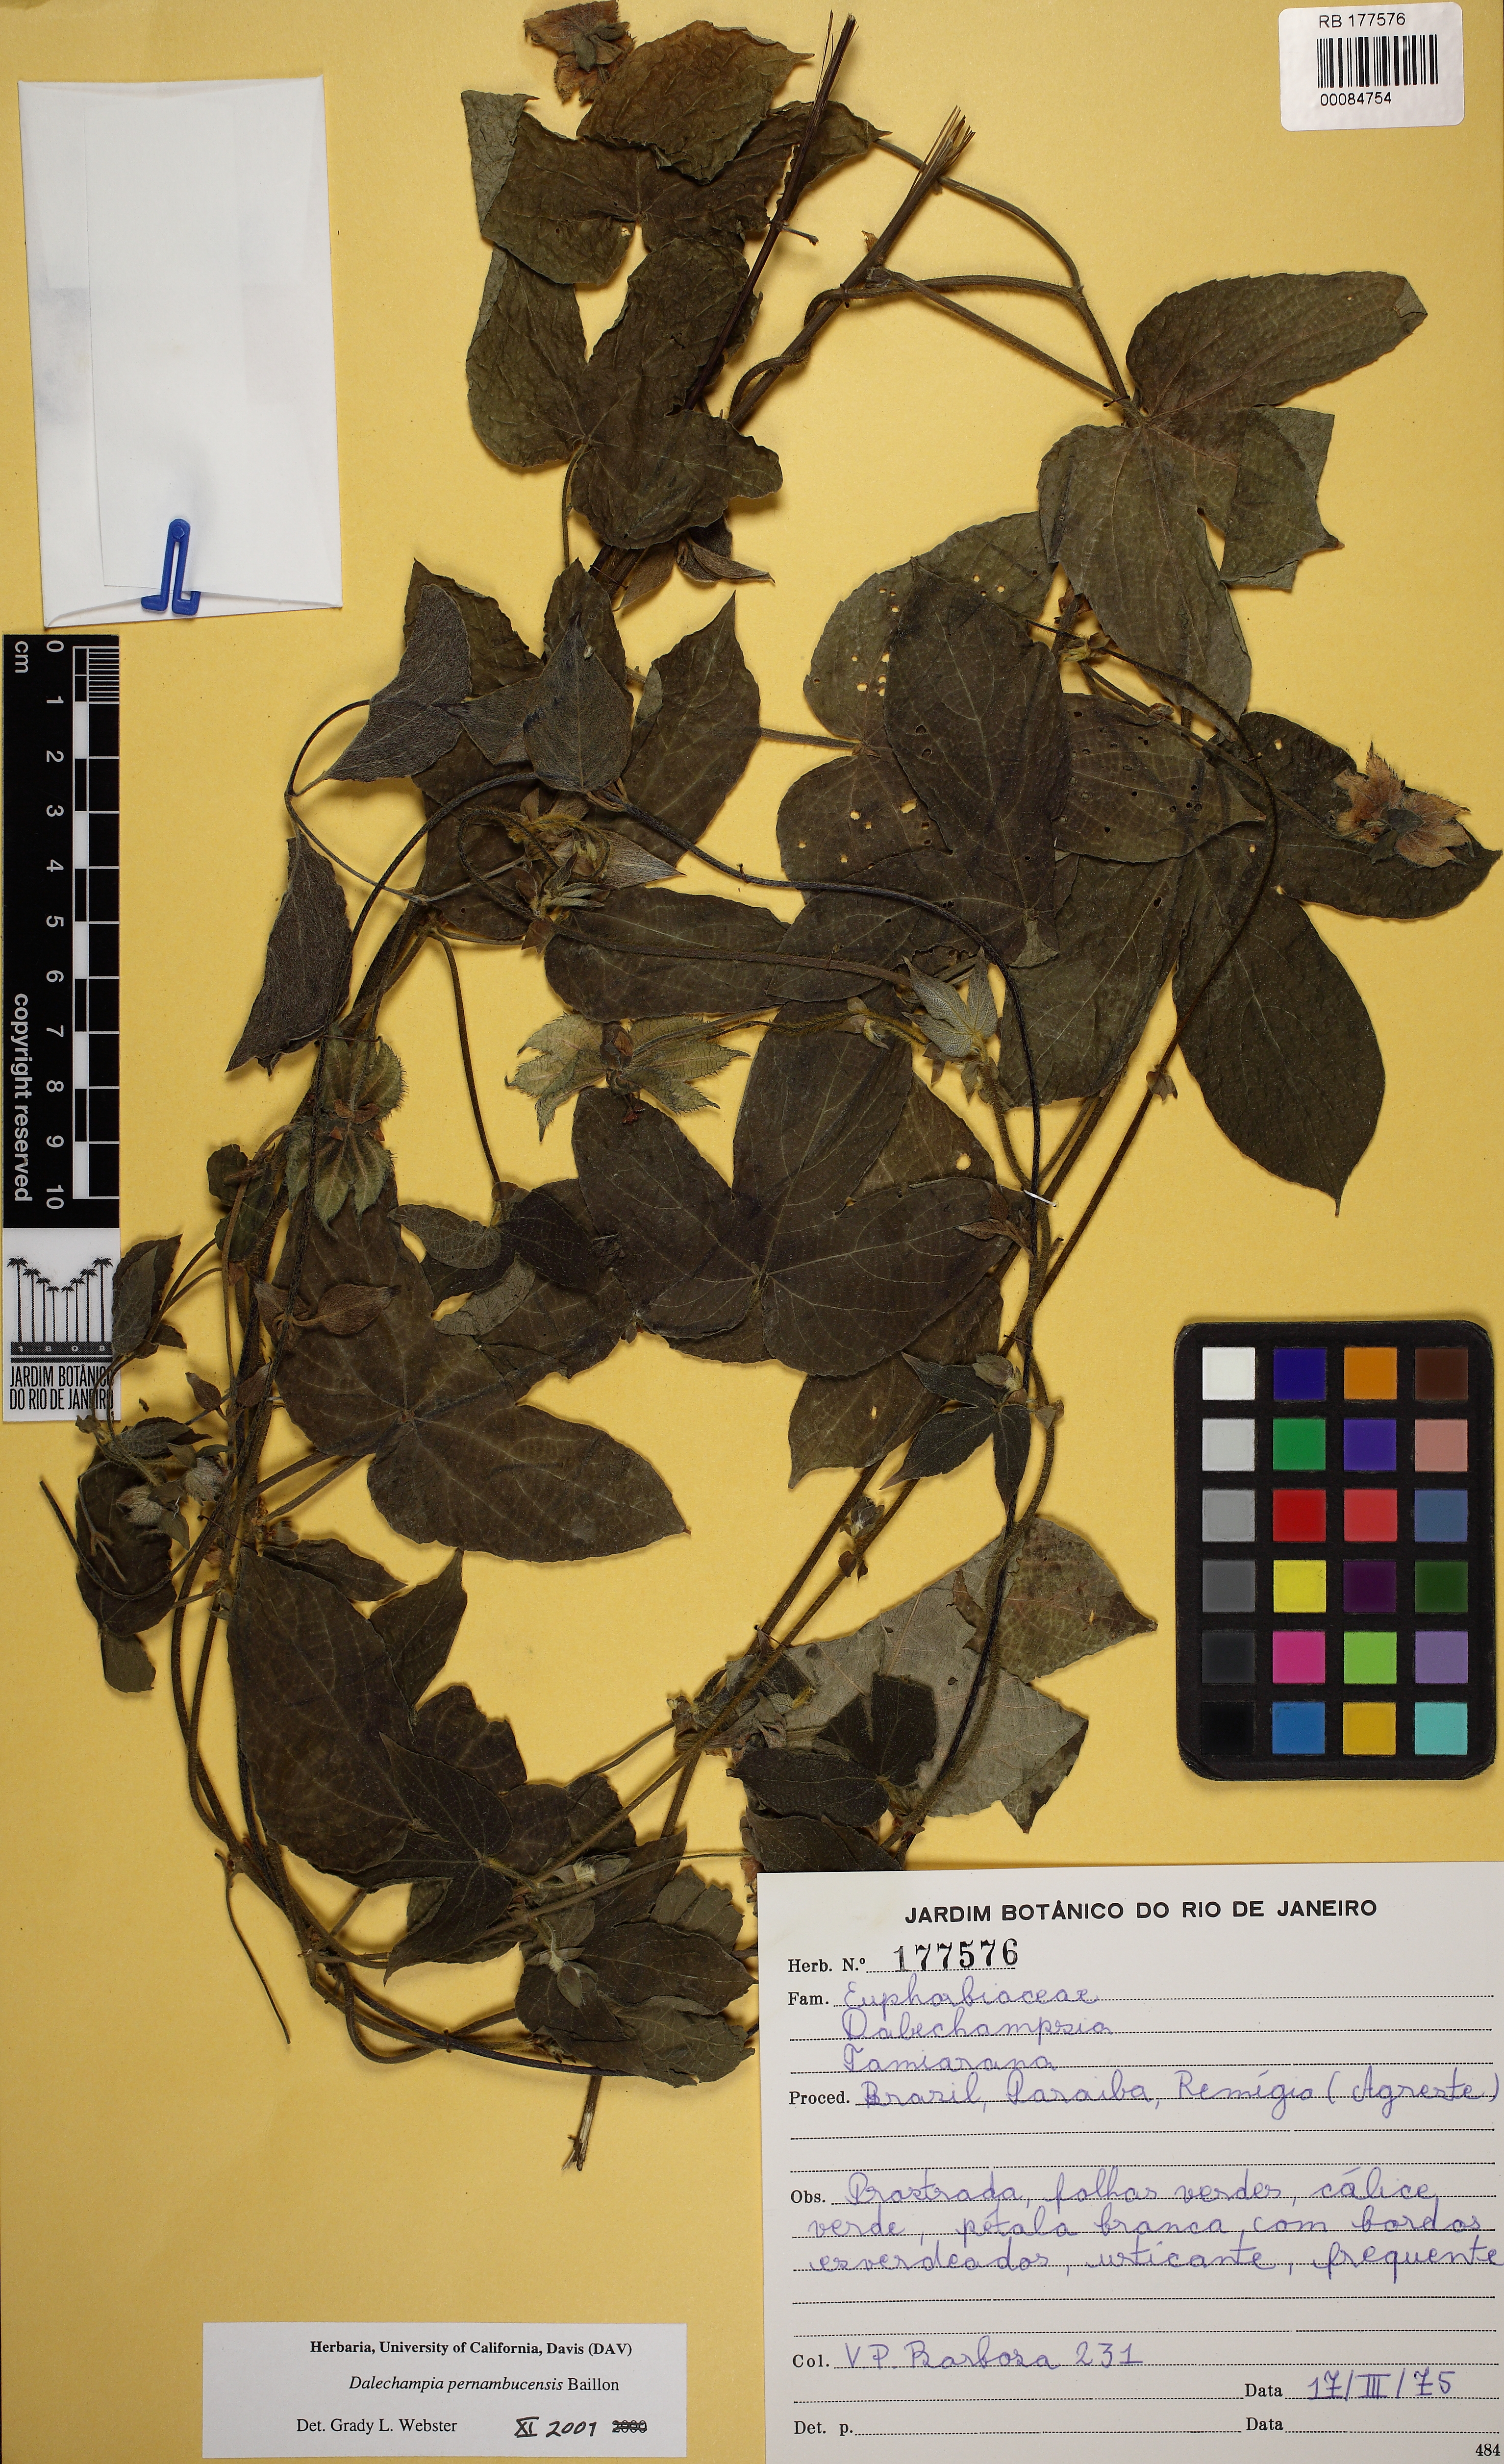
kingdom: Plantae
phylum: Tracheophyta
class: Magnoliopsida
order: Malpighiales
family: Euphorbiaceae
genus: Dalechampia
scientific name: Dalechampia pernambucensis
